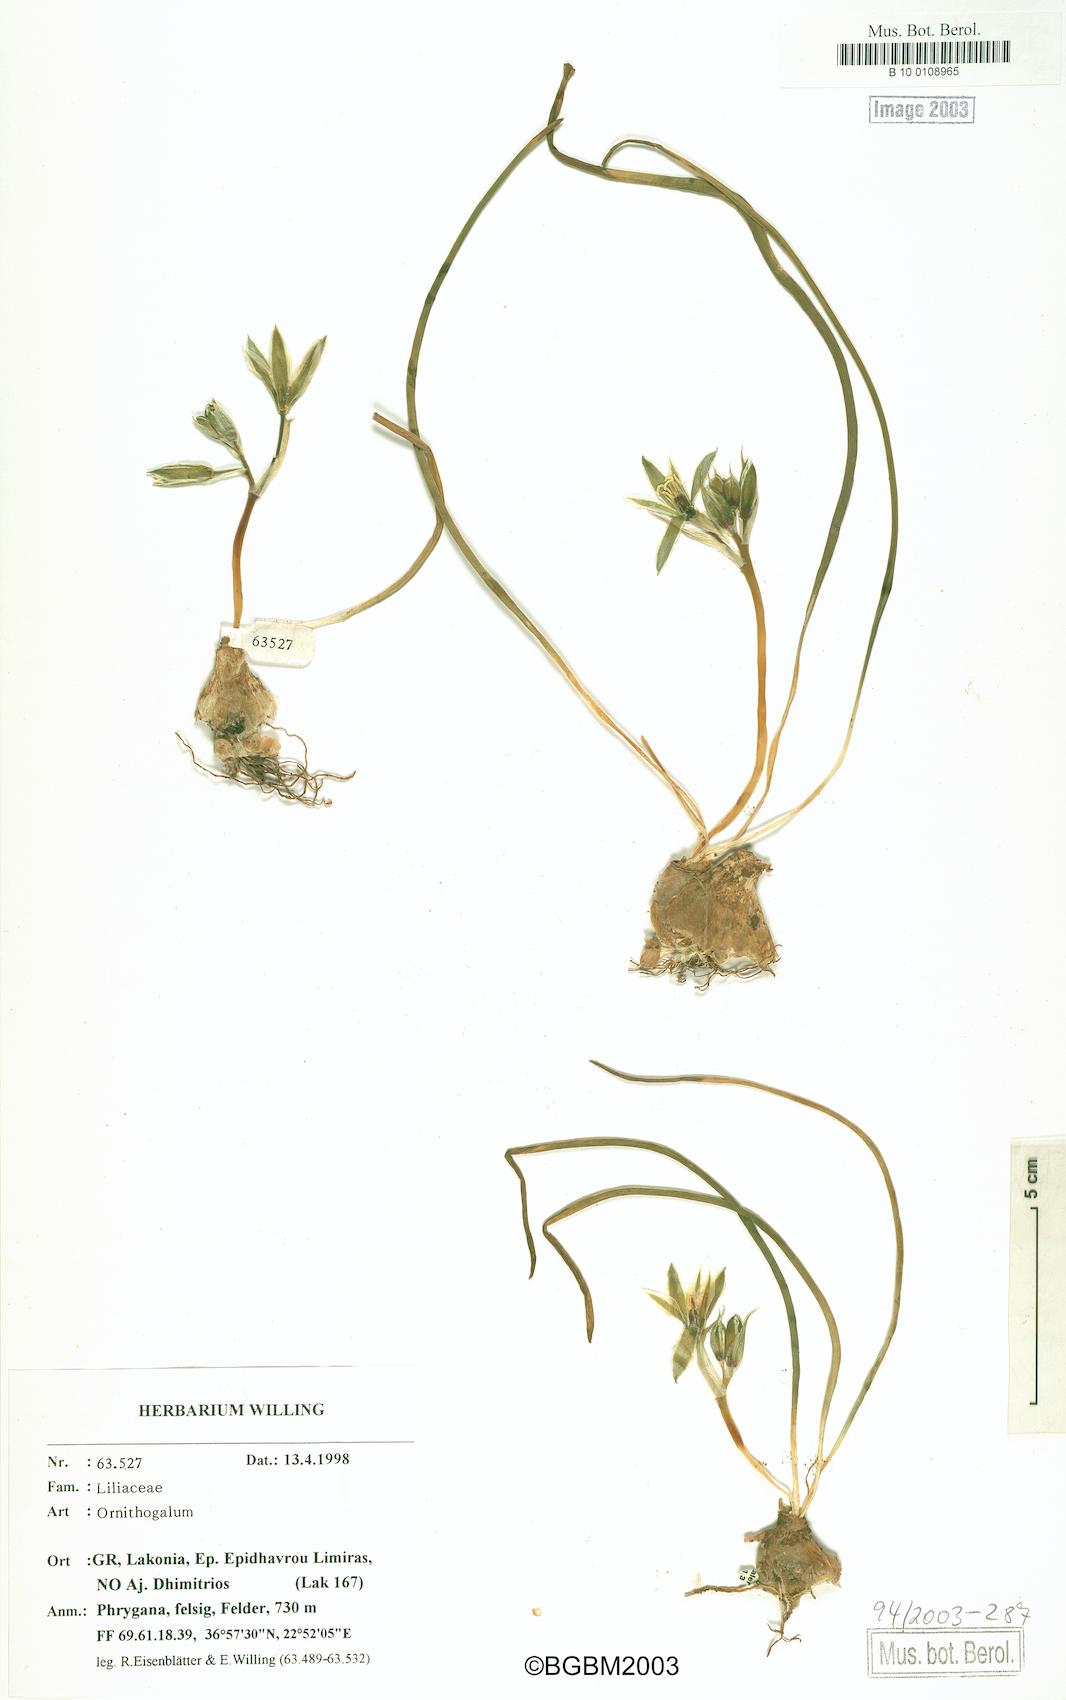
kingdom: Plantae
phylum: Tracheophyta
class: Liliopsida
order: Asparagales
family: Asparagaceae
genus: Ornithogalum
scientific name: Ornithogalum
